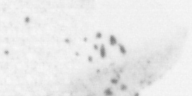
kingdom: Animalia
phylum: Chordata
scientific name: Chordata
